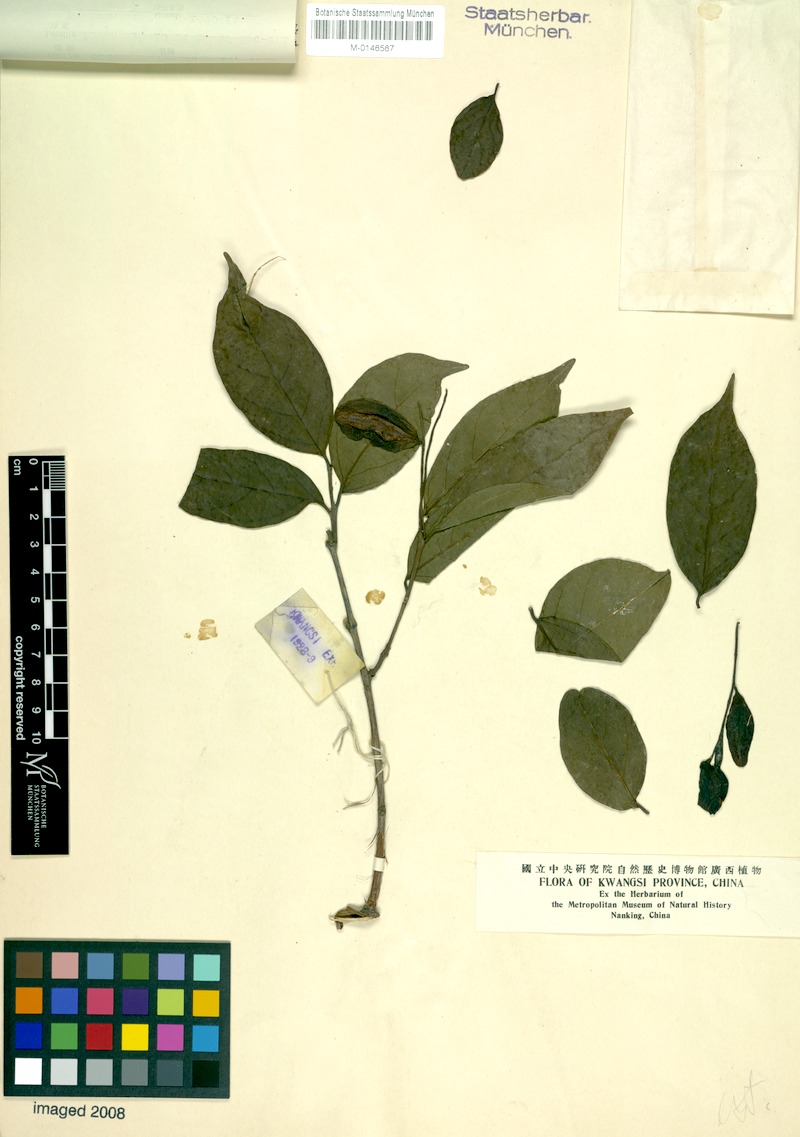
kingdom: Plantae
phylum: Tracheophyta
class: Magnoliopsida
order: Myrtales
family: Combretaceae
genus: Combretum
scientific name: Combretum wallichii
